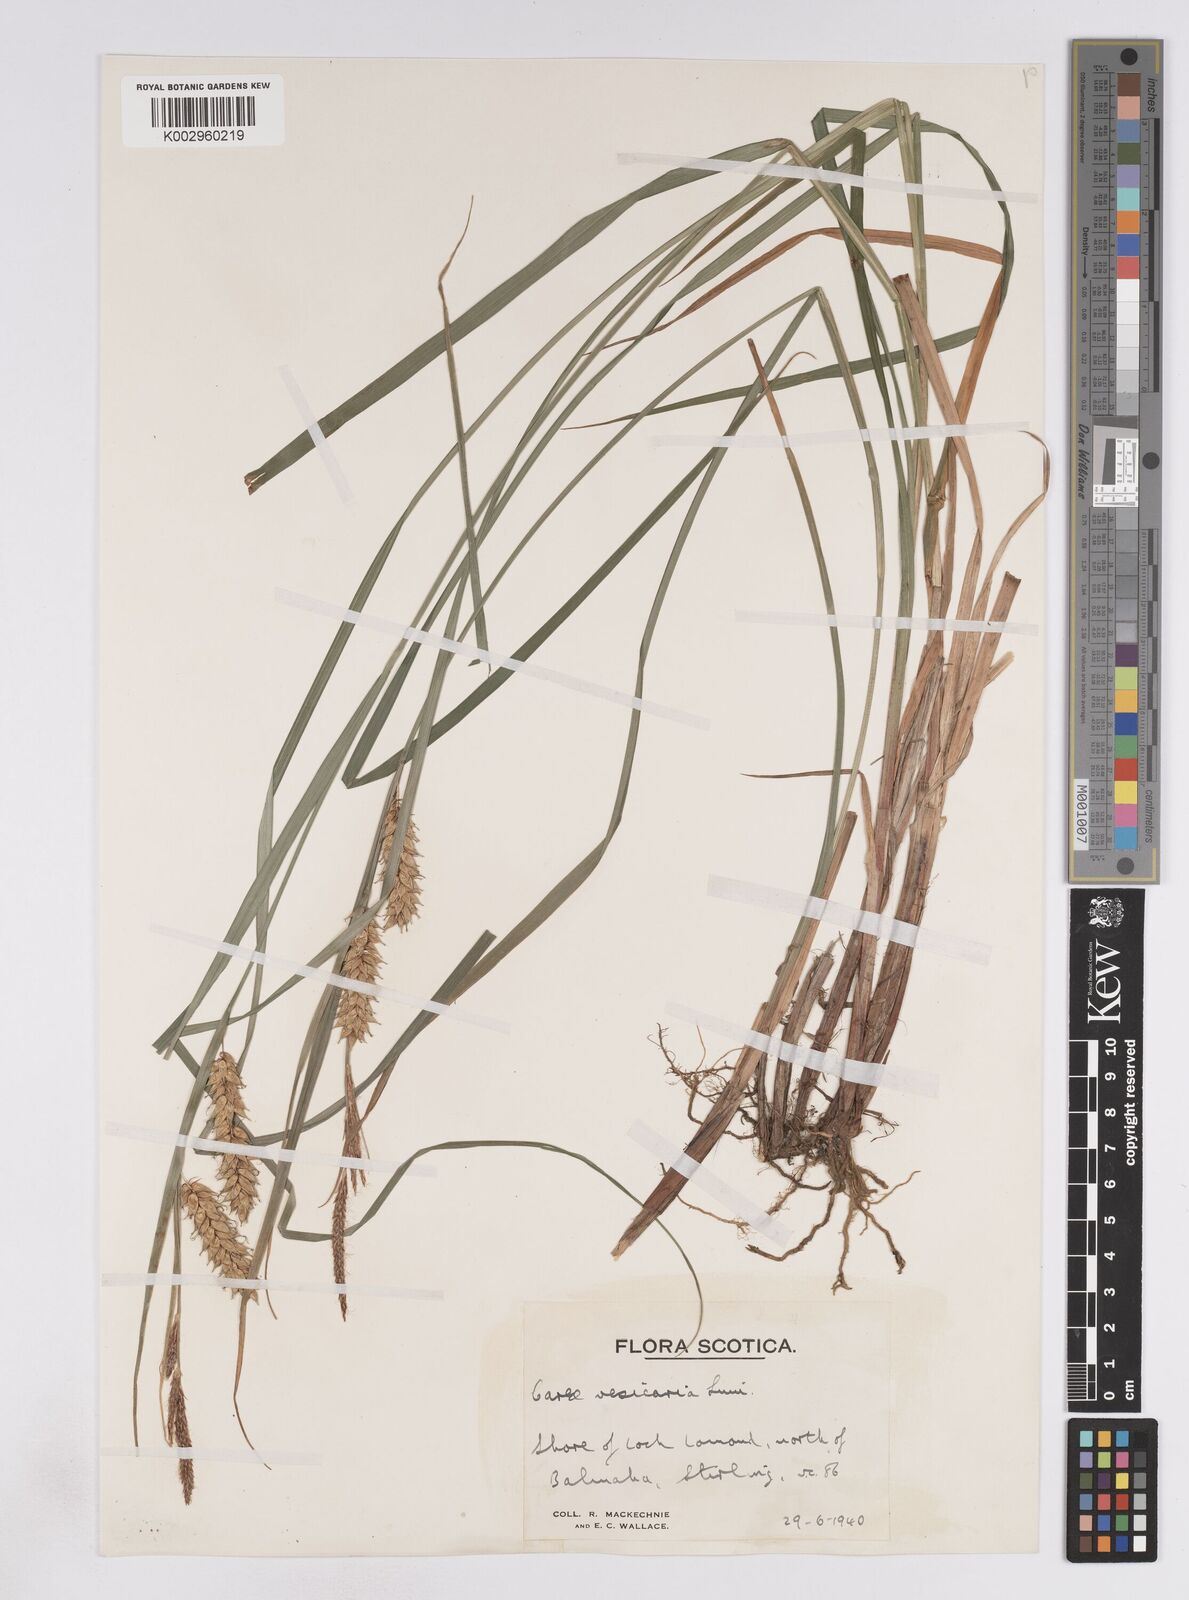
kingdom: Plantae
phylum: Tracheophyta
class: Liliopsida
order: Poales
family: Cyperaceae
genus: Carex
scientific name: Carex vesicaria
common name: Bladder-sedge
